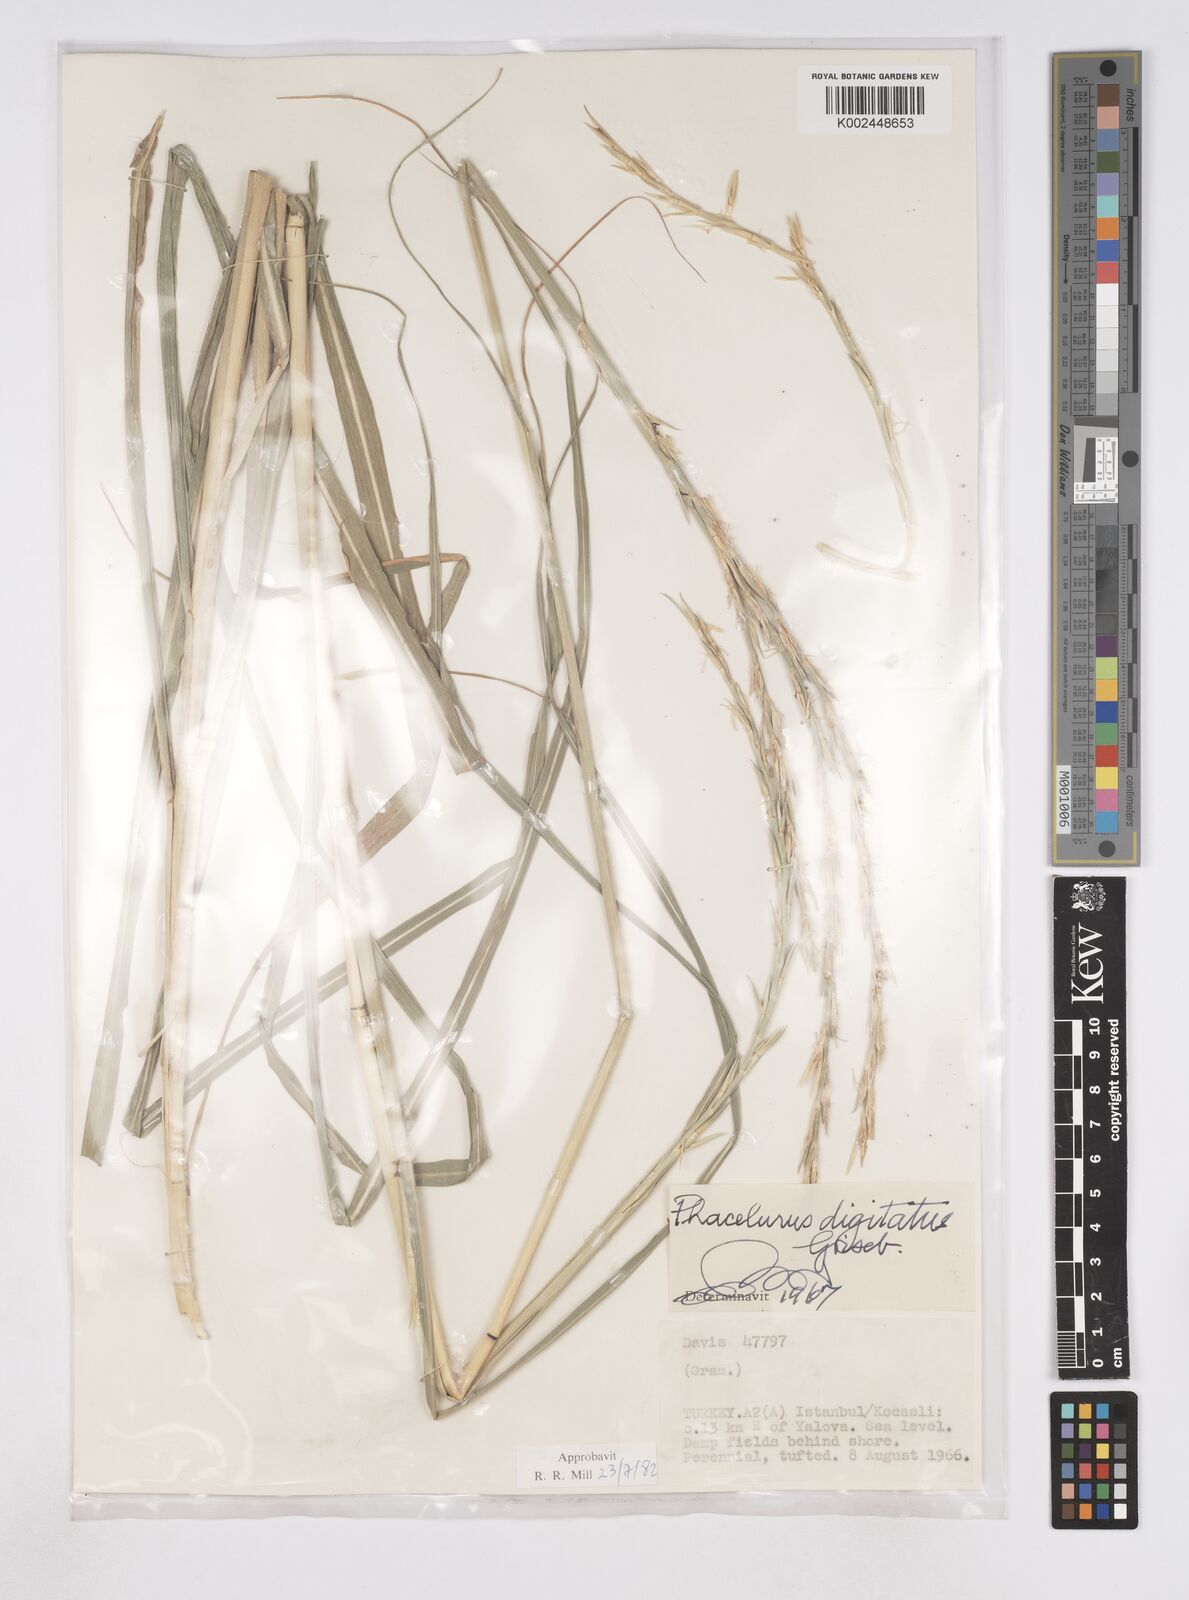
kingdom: Plantae
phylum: Tracheophyta
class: Liliopsida
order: Poales
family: Poaceae
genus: Phacelurus
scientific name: Phacelurus digitatus
